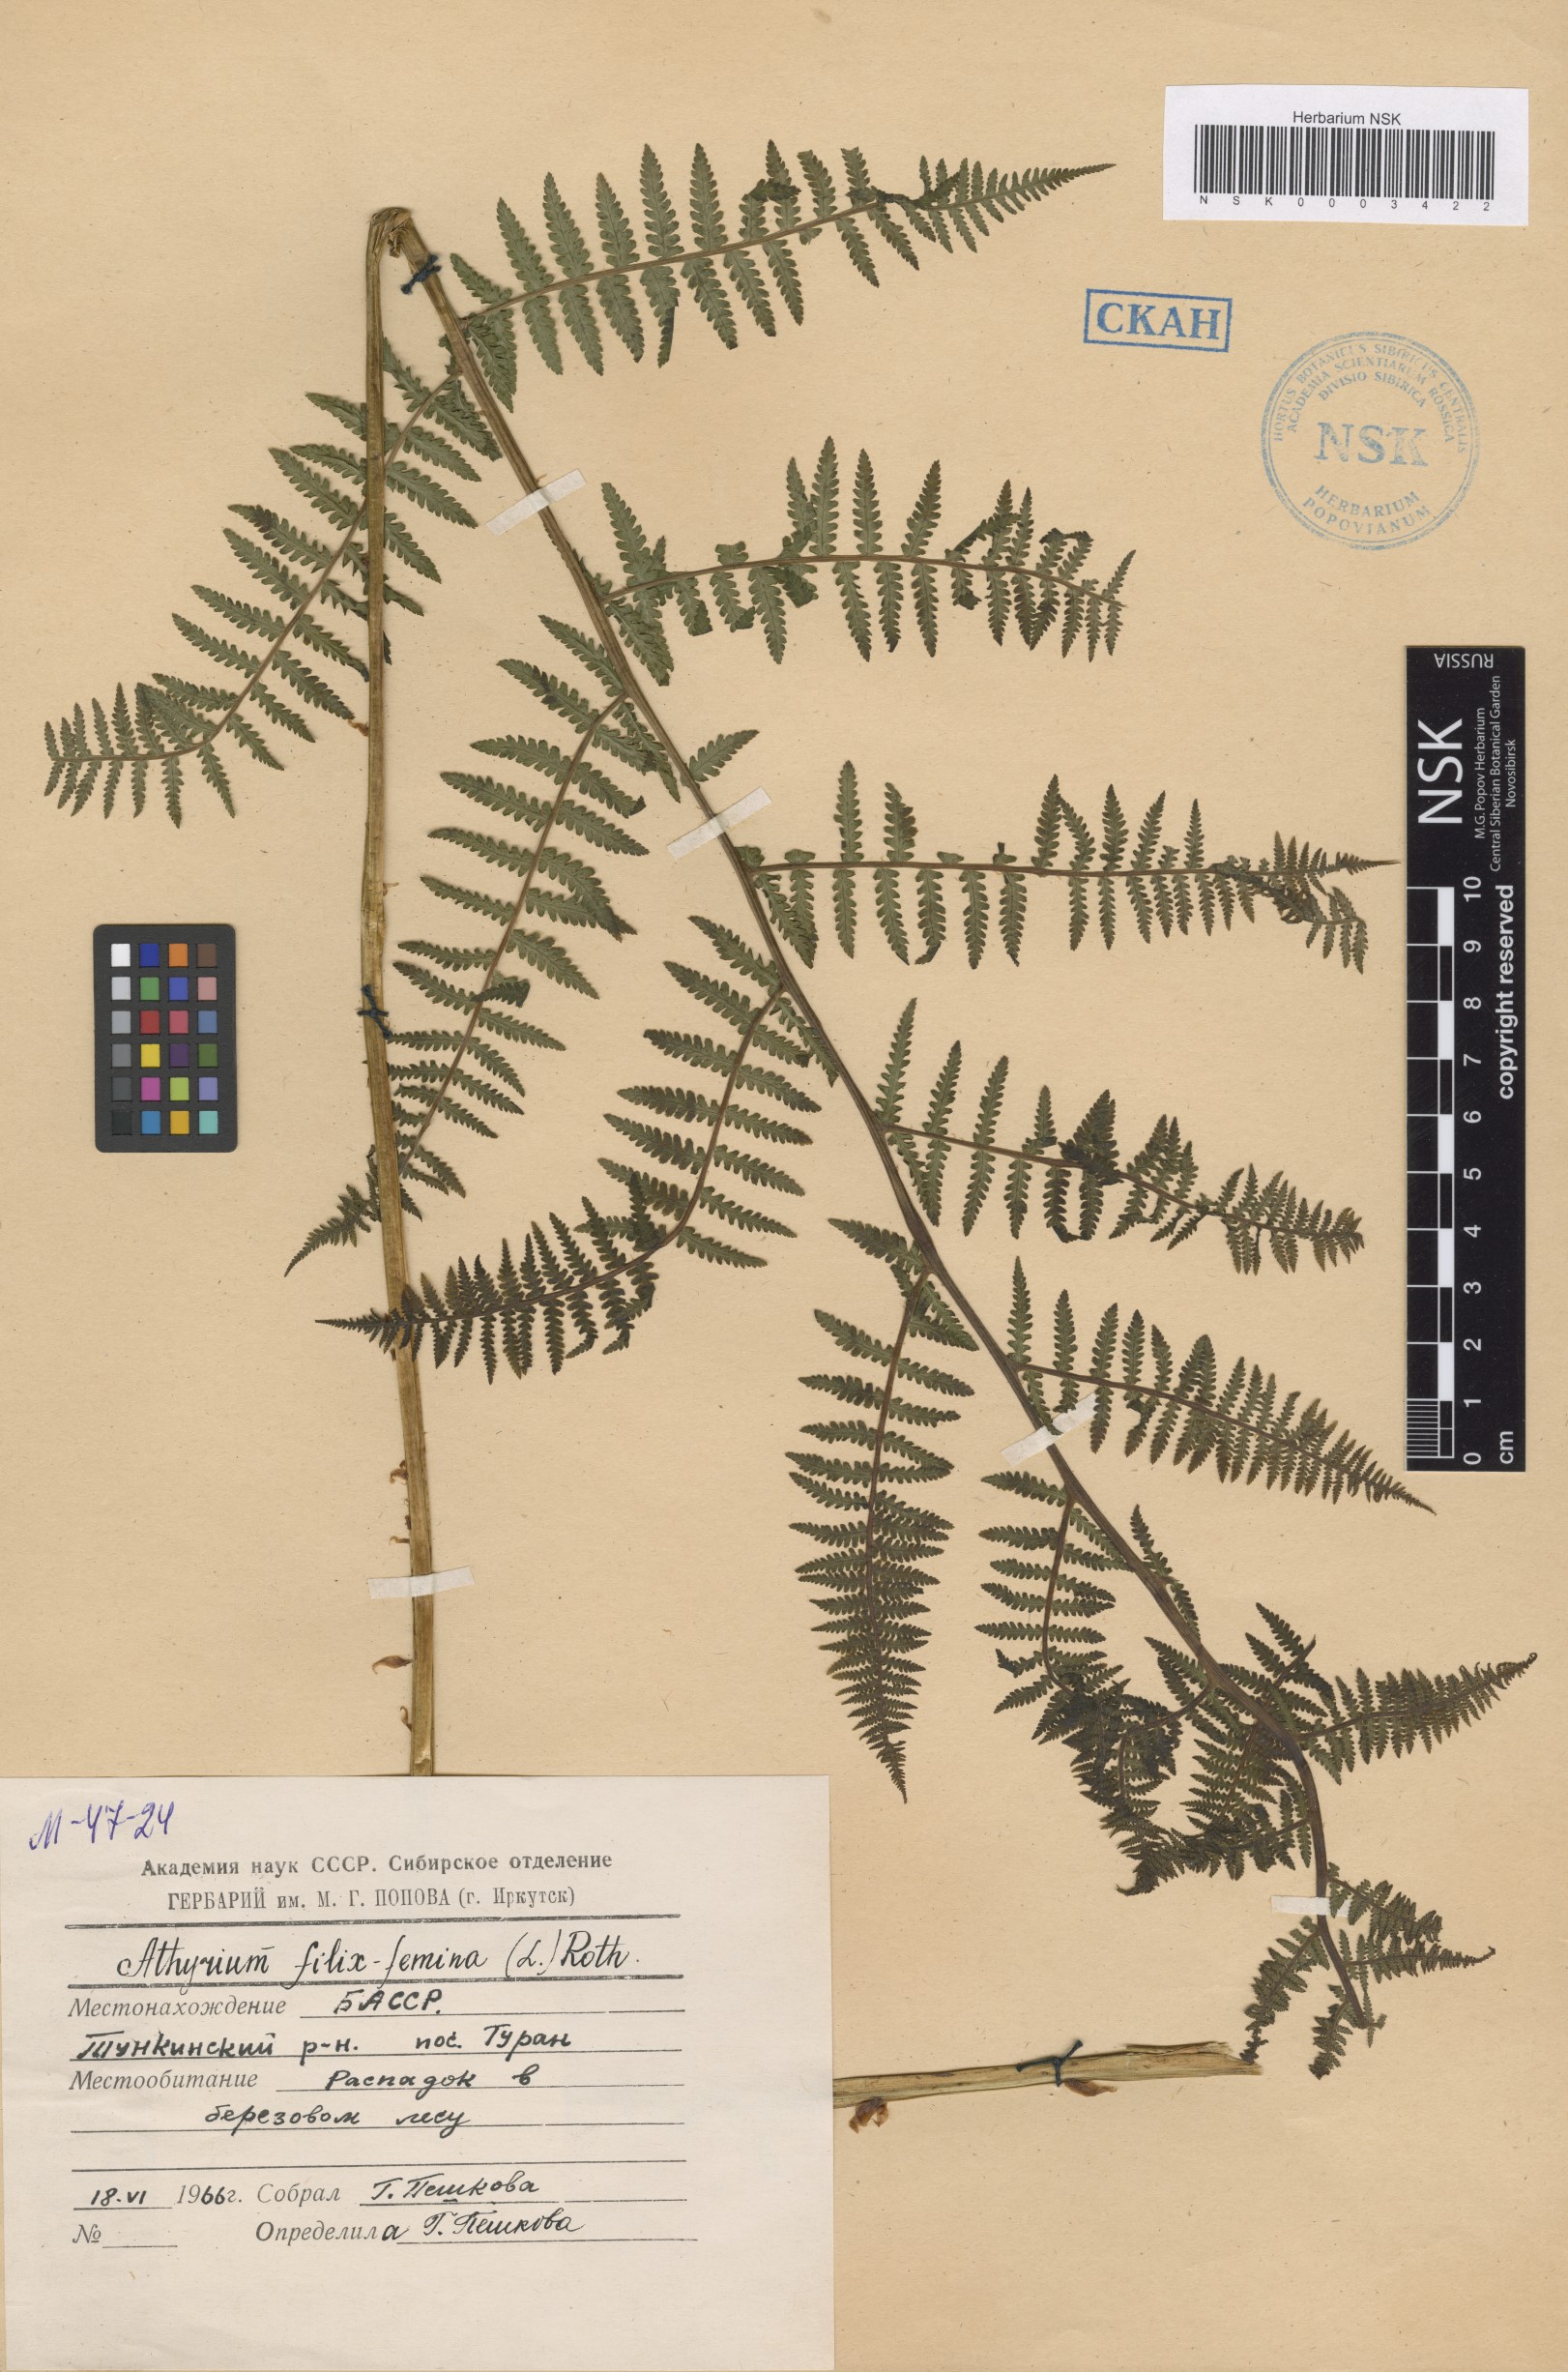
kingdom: Plantae
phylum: Tracheophyta
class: Polypodiopsida
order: Polypodiales
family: Athyriaceae
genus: Athyrium
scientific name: Athyrium filix-femina
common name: Lady fern
